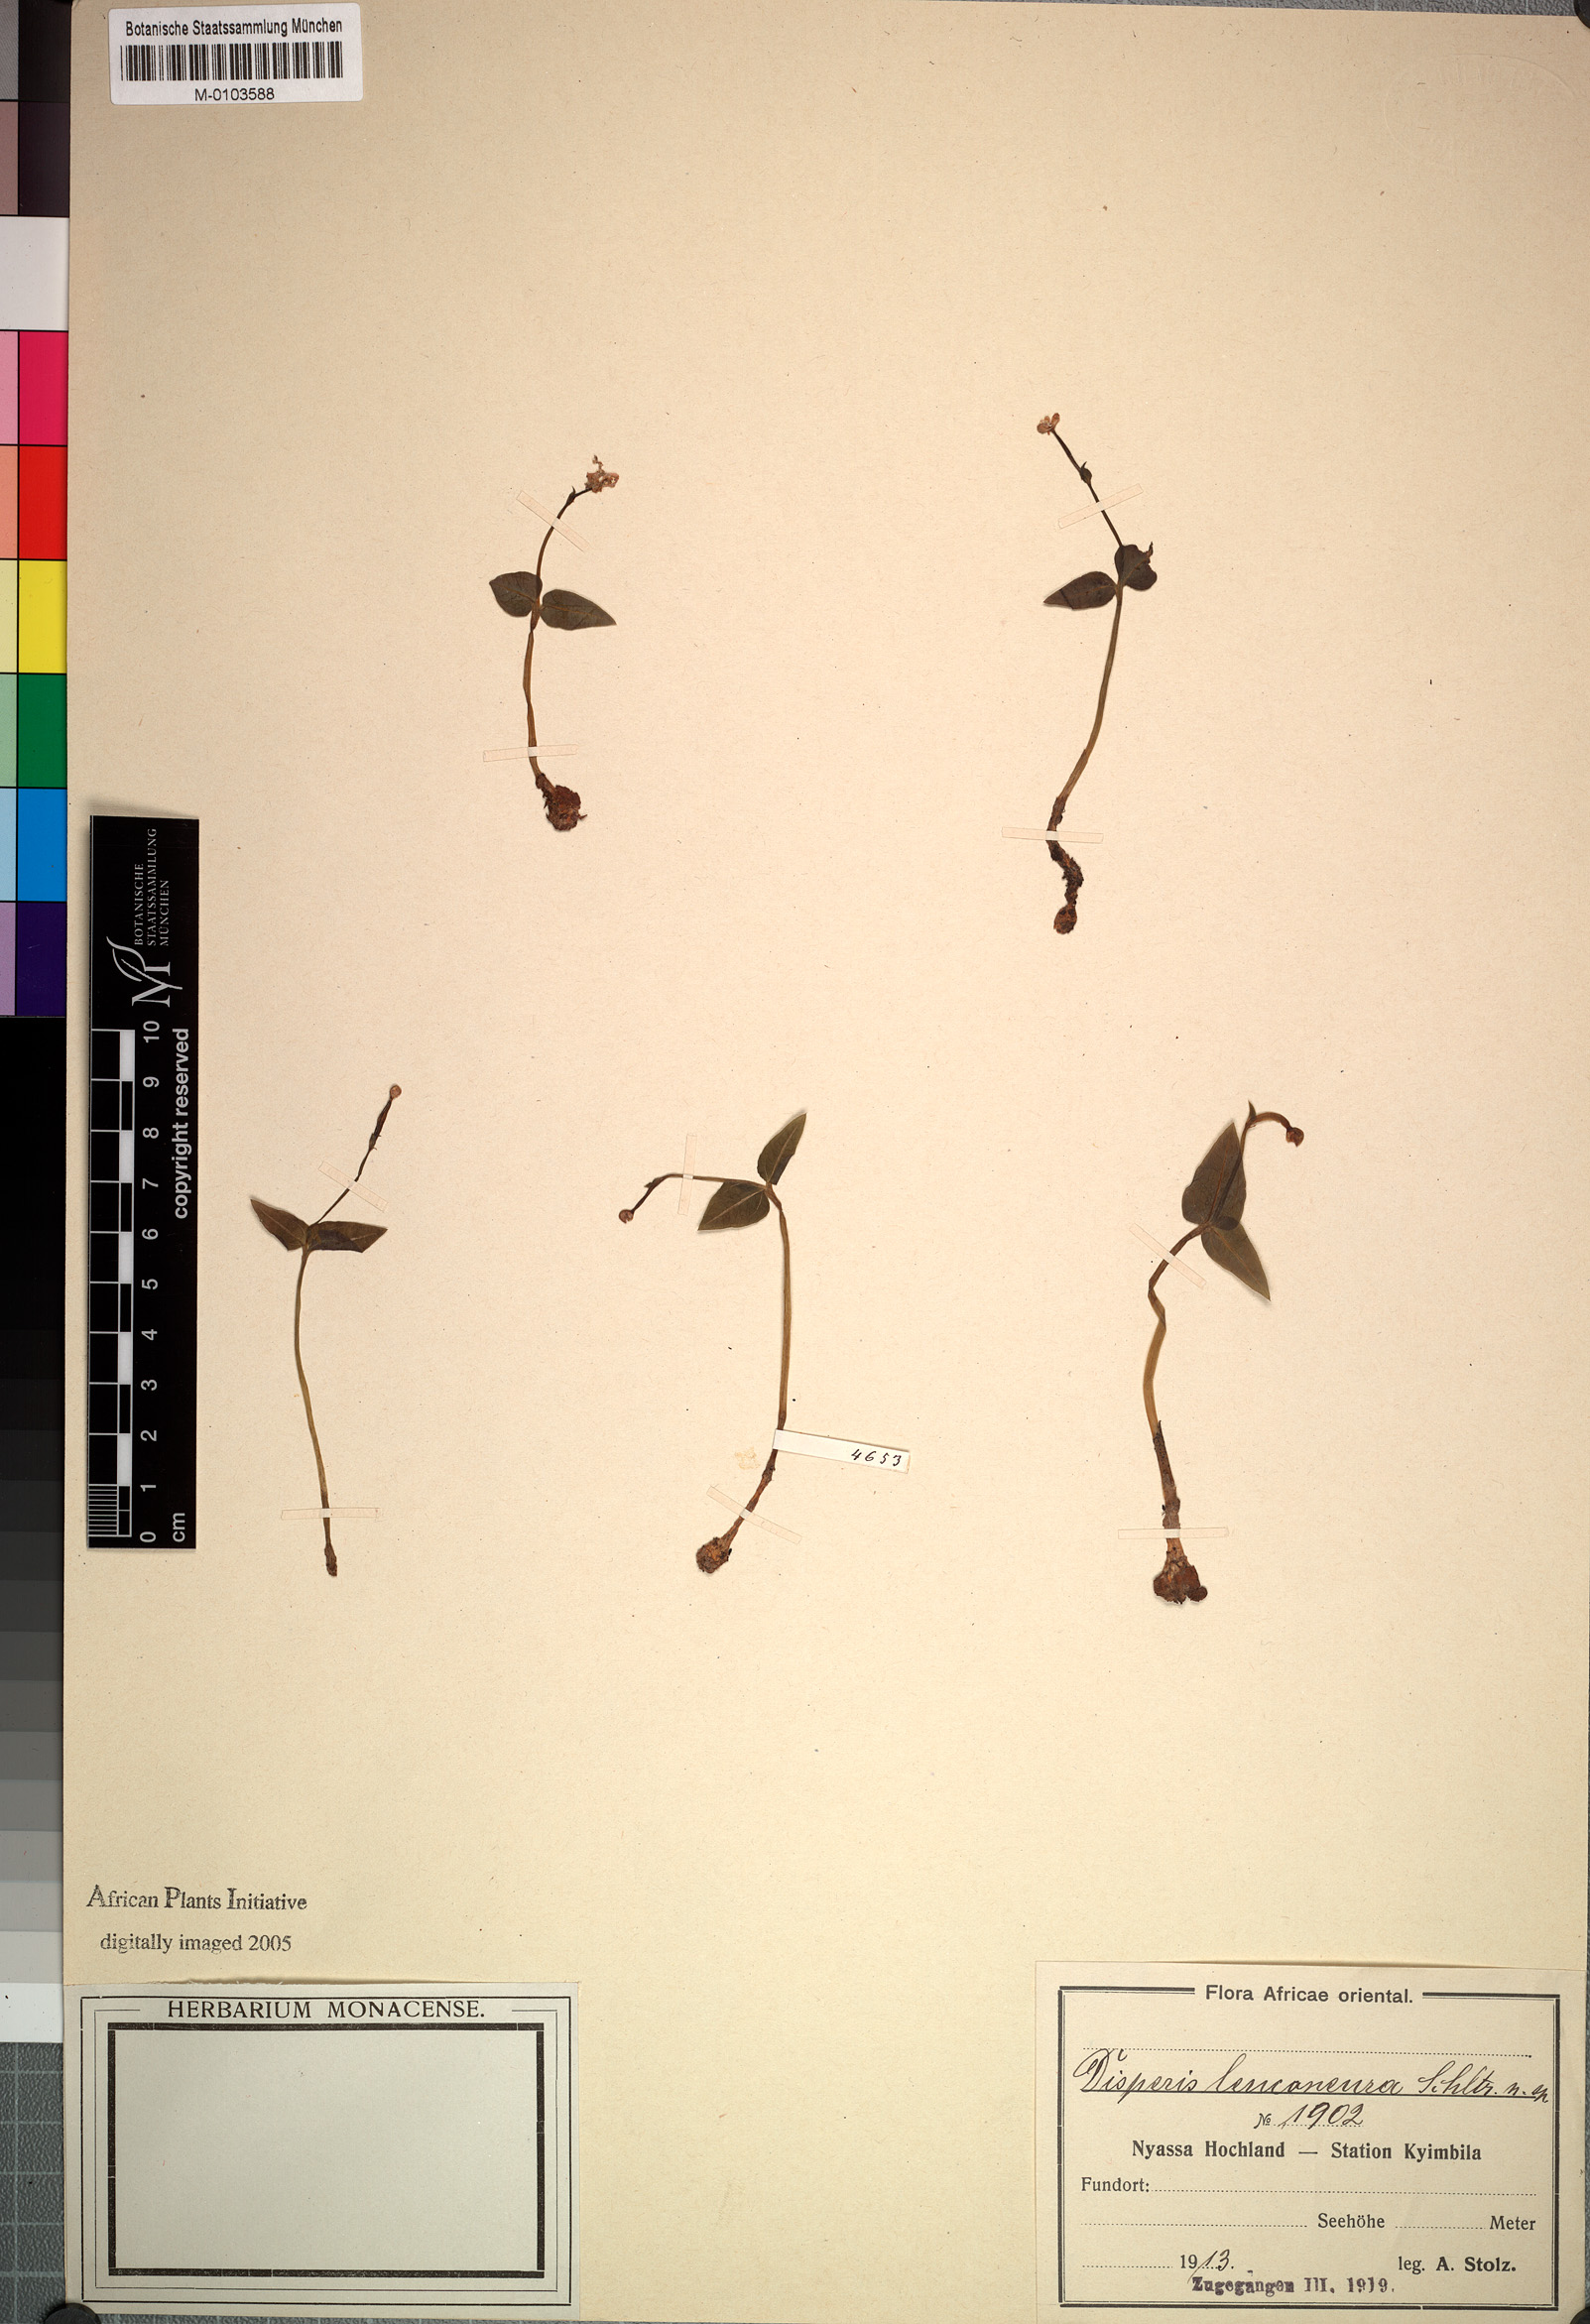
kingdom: Plantae
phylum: Tracheophyta
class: Liliopsida
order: Asparagales
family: Orchidaceae
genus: Disperis
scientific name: Disperis leuconeura
